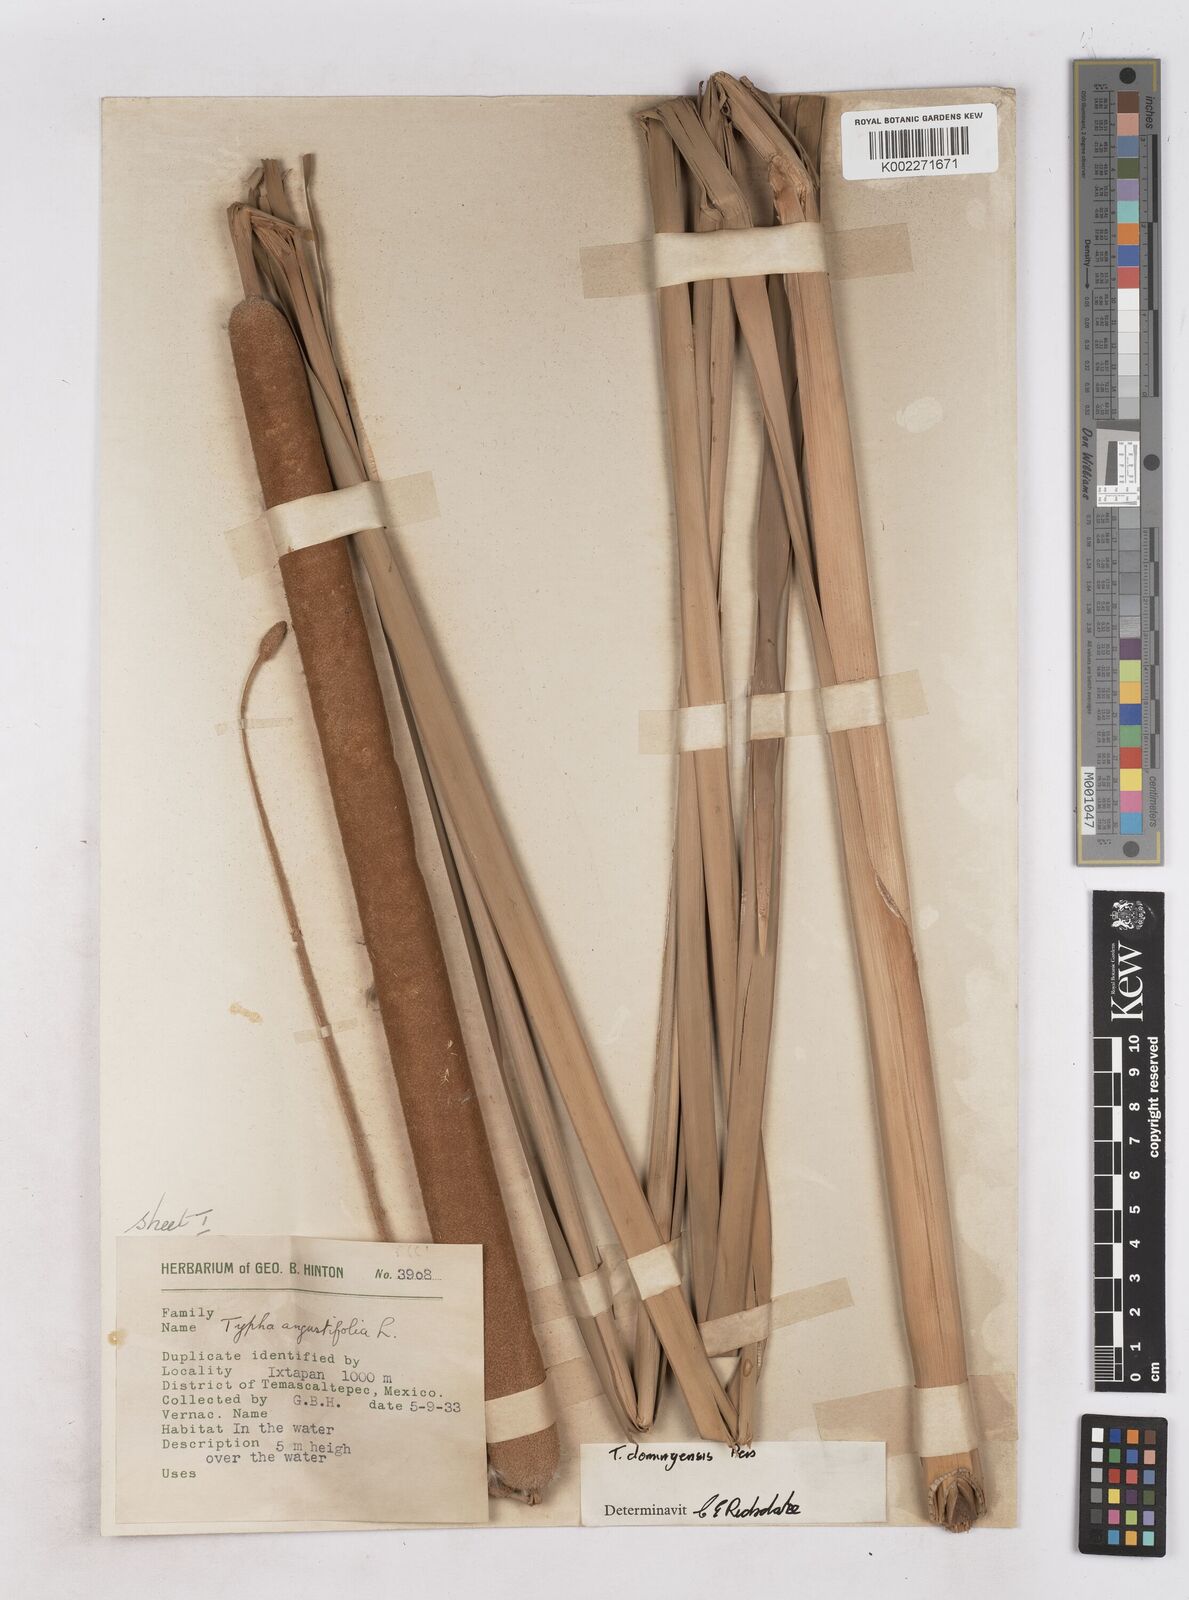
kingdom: Plantae
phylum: Tracheophyta
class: Liliopsida
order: Poales
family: Typhaceae
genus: Typha
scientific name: Typha domingensis
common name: Southern cattail
